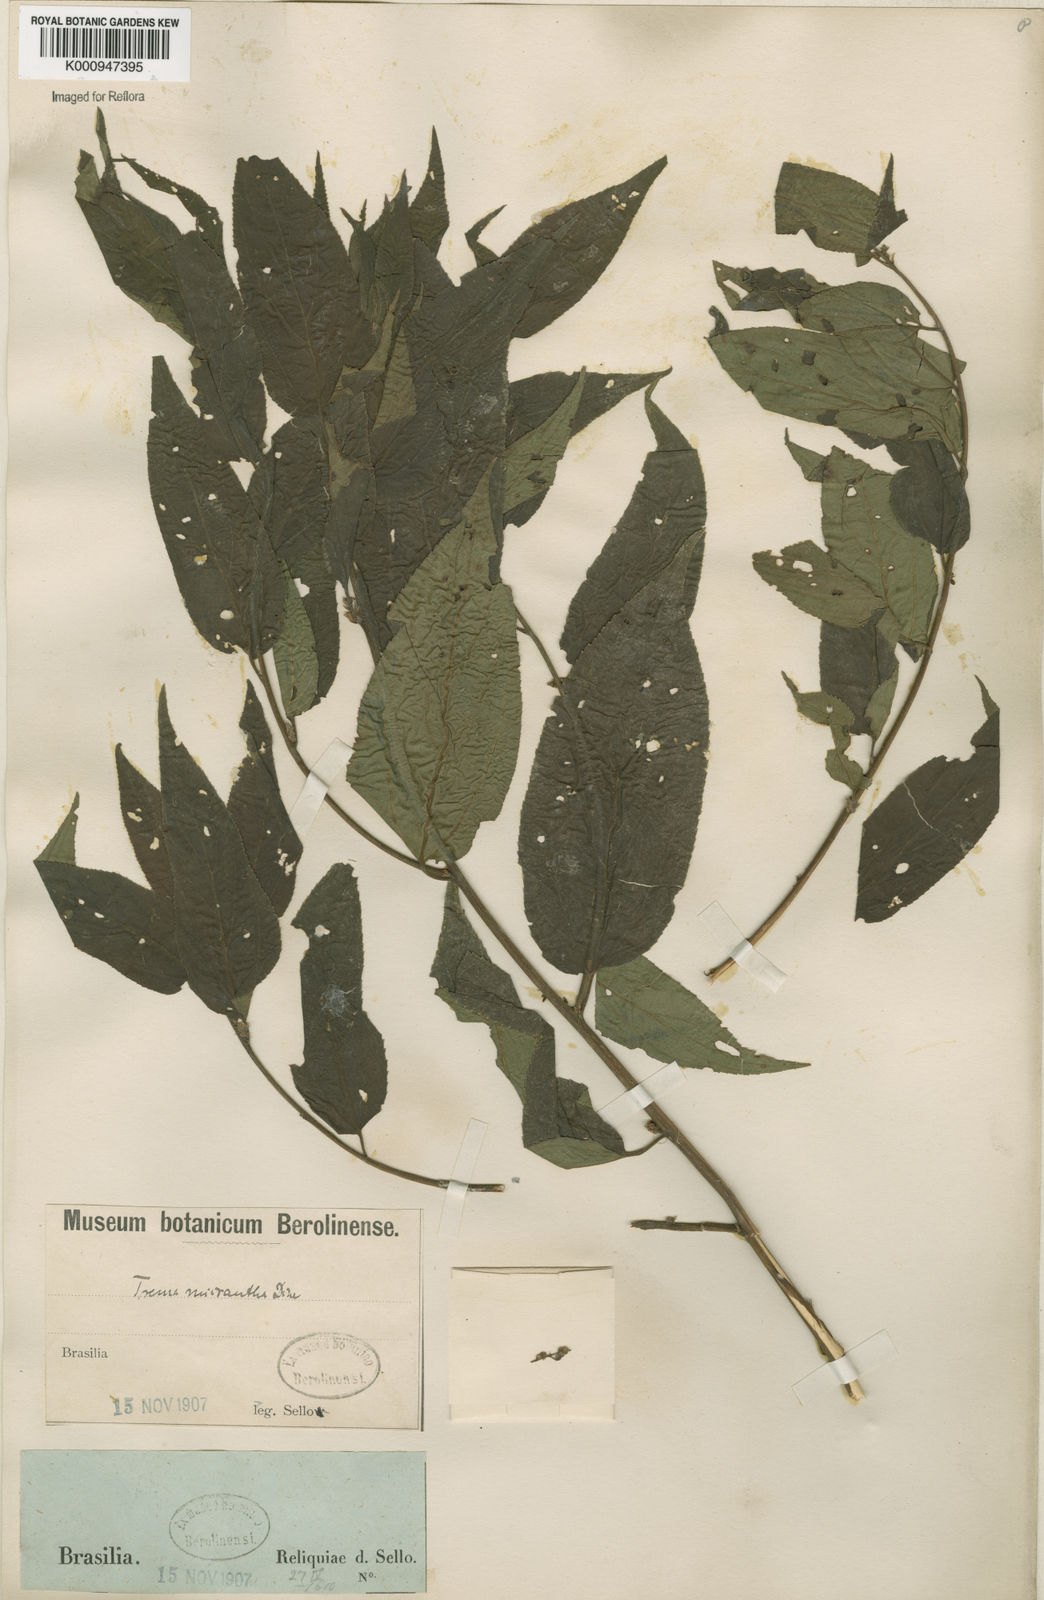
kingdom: Plantae
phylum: Tracheophyta
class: Magnoliopsida
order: Rosales
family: Cannabaceae
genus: Trema
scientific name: Trema micranthum
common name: Jamaican nettletree
